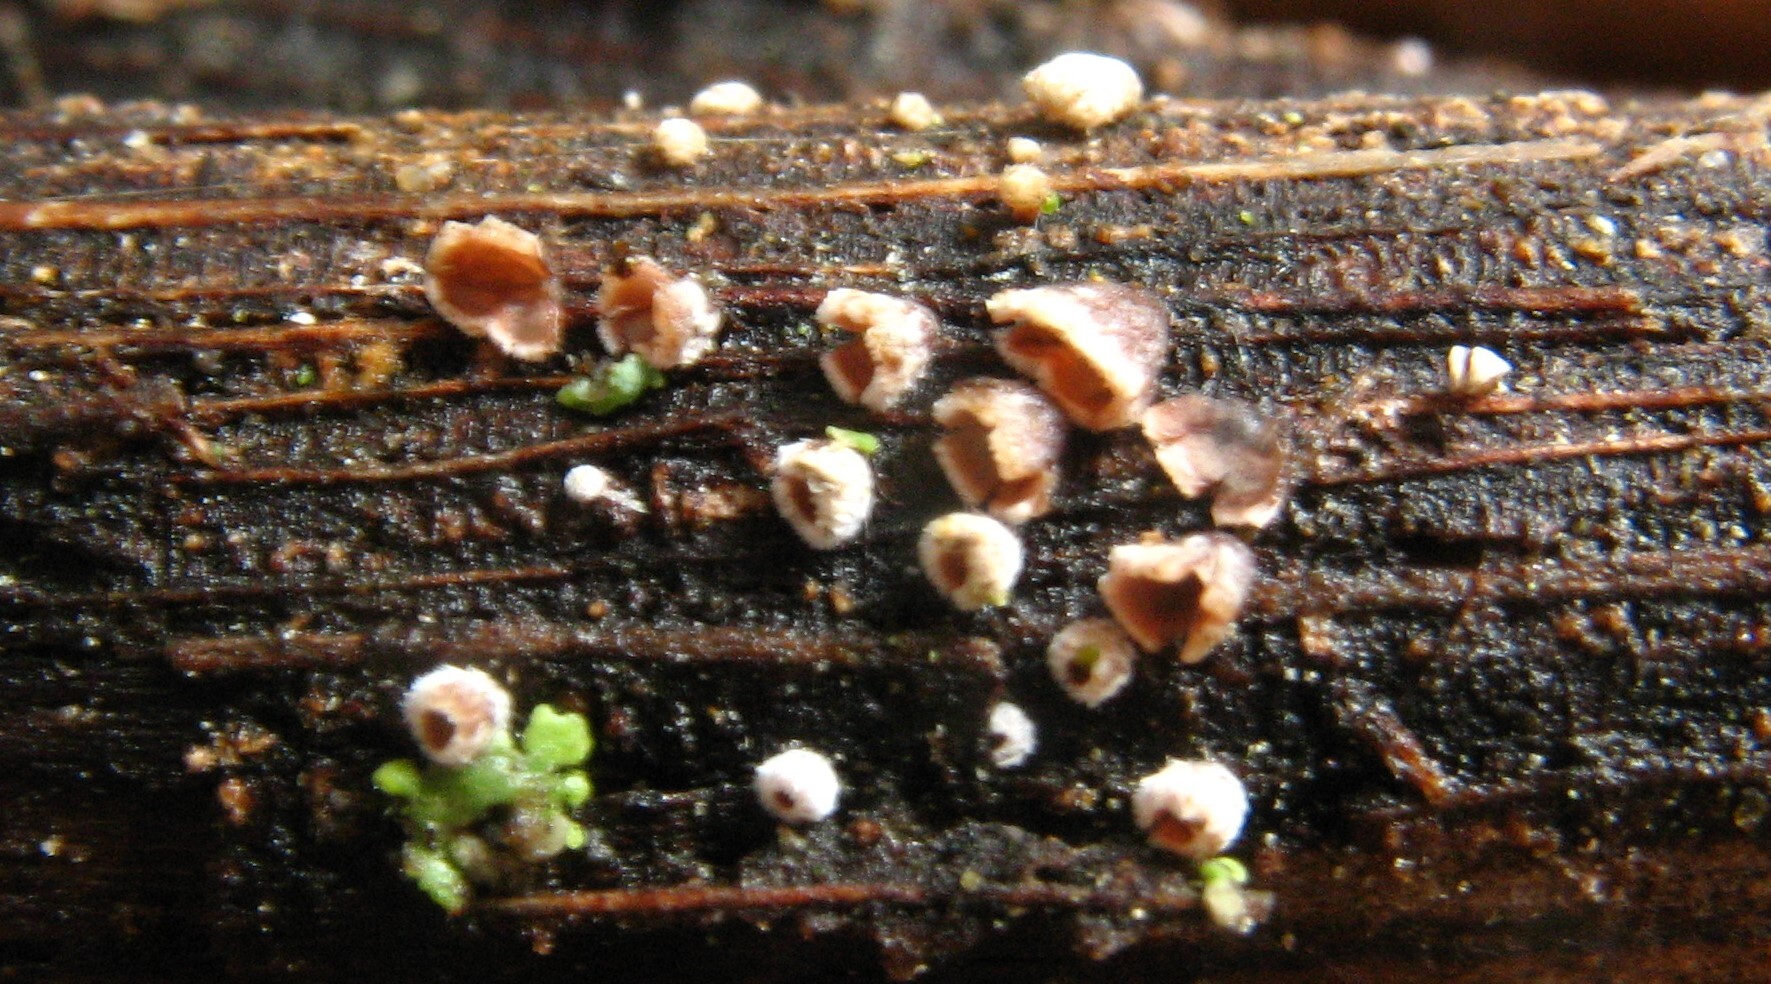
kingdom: Fungi
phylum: Basidiomycota
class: Agaricomycetes
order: Agaricales
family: Marasmiaceae
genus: Calathella
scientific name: Calathella eruciformis
